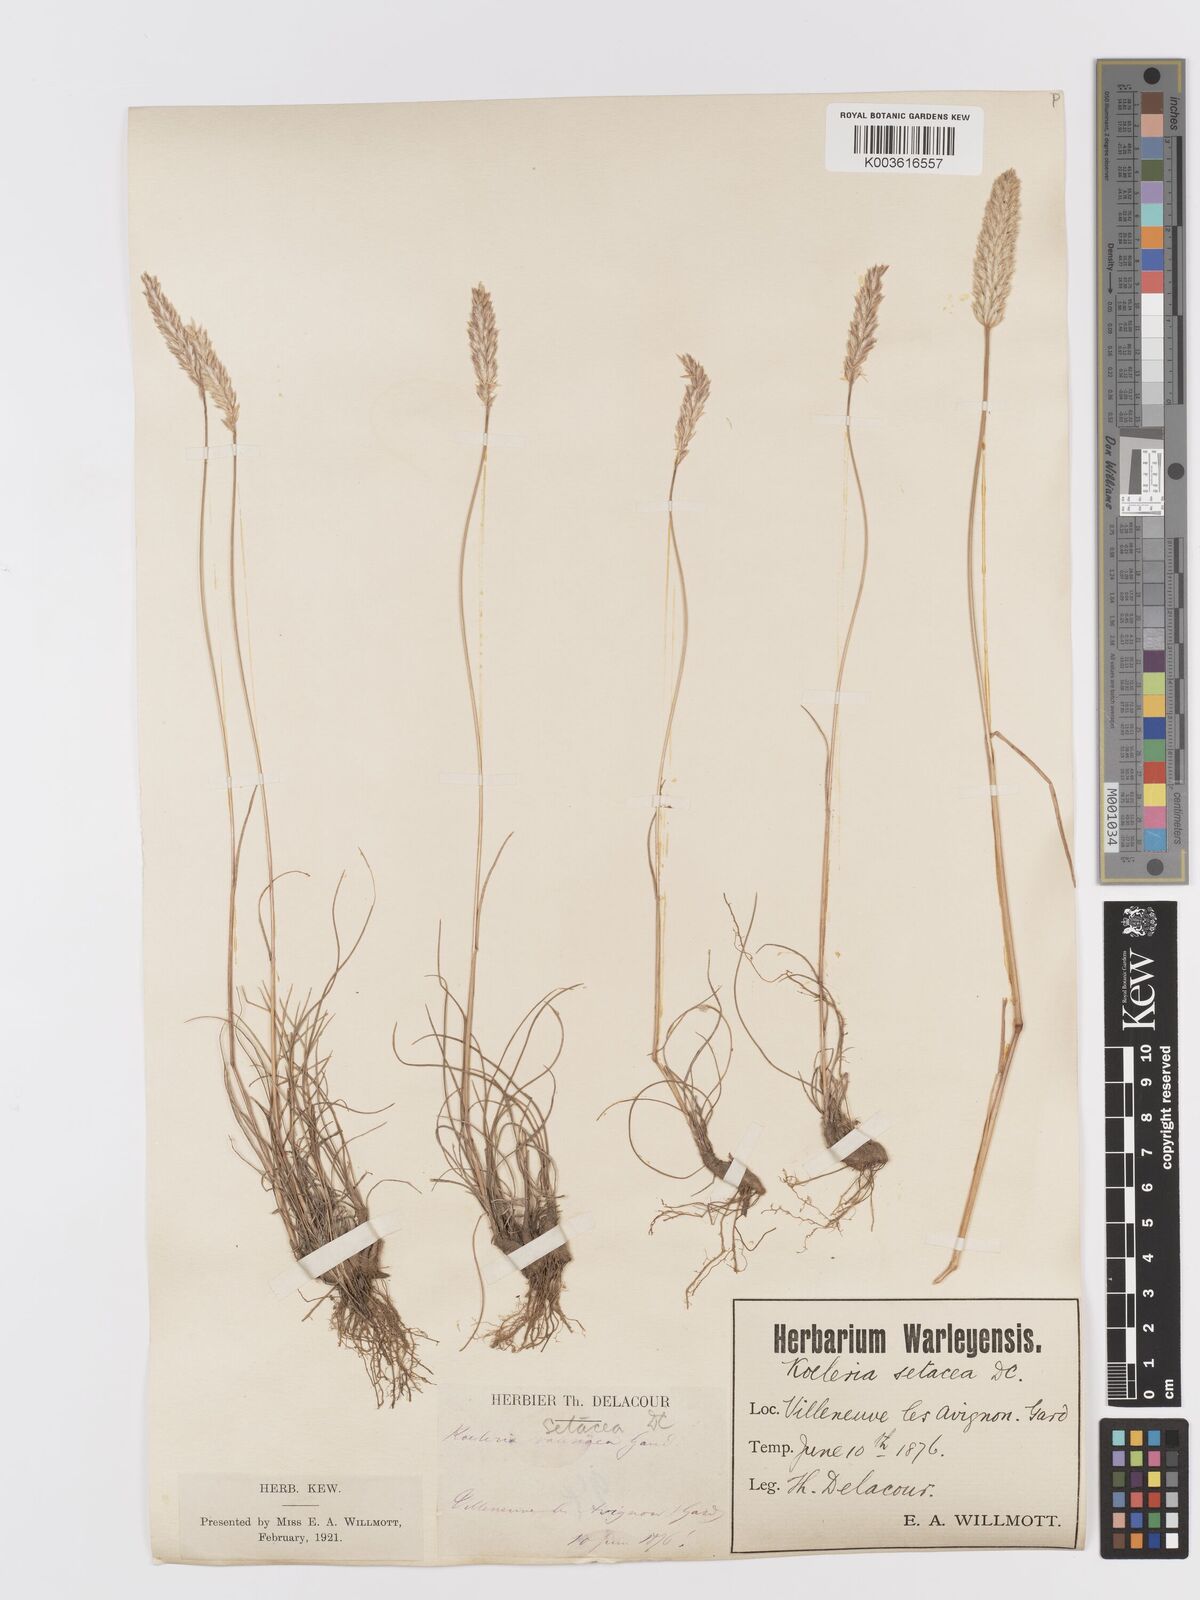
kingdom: Plantae
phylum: Tracheophyta
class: Liliopsida
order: Poales
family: Poaceae
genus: Koeleria
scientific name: Koeleria vallesiana
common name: Somerset hair-grass
